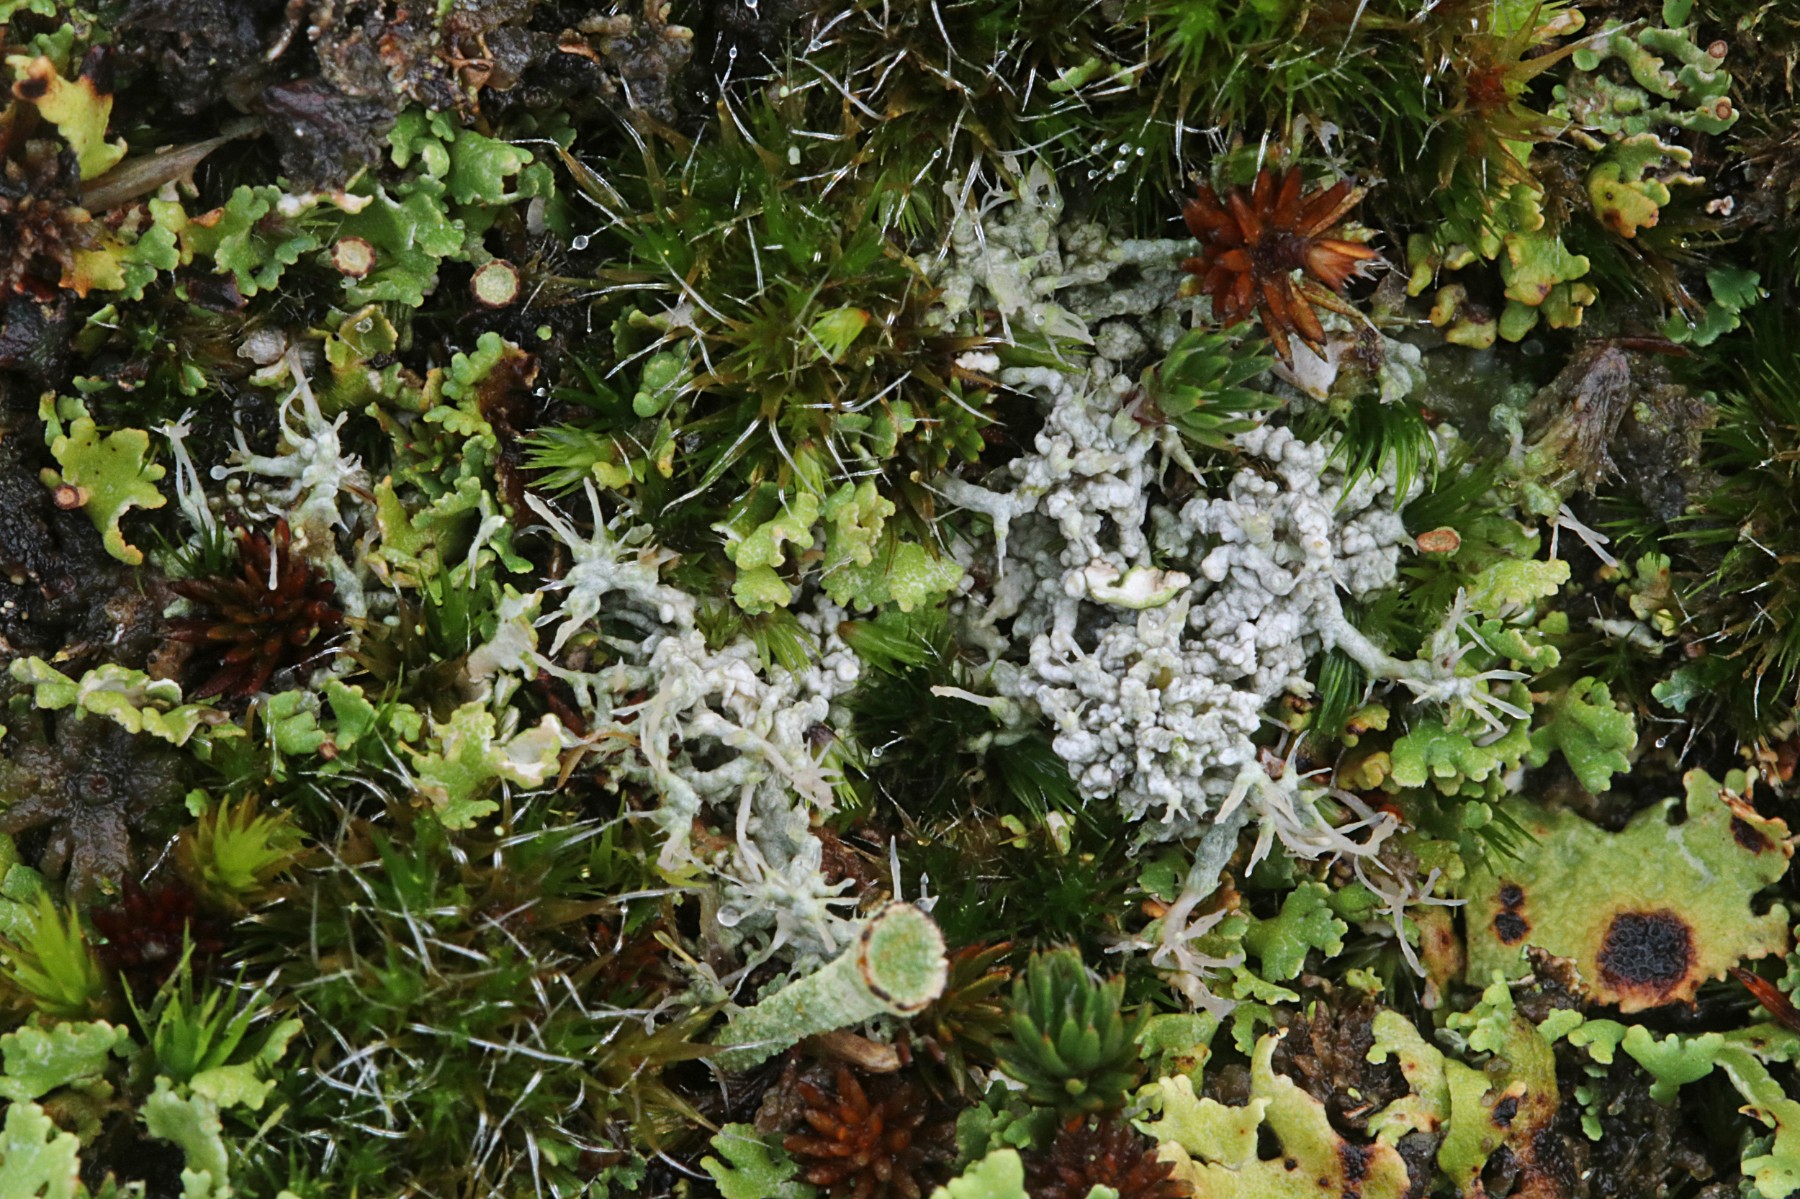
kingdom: Fungi
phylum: Ascomycota
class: Lecanoromycetes
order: Pertusariales
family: Ochrolechiaceae
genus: Ochrolechia
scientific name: Ochrolechia frigida
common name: fjeld-blegskivelav
